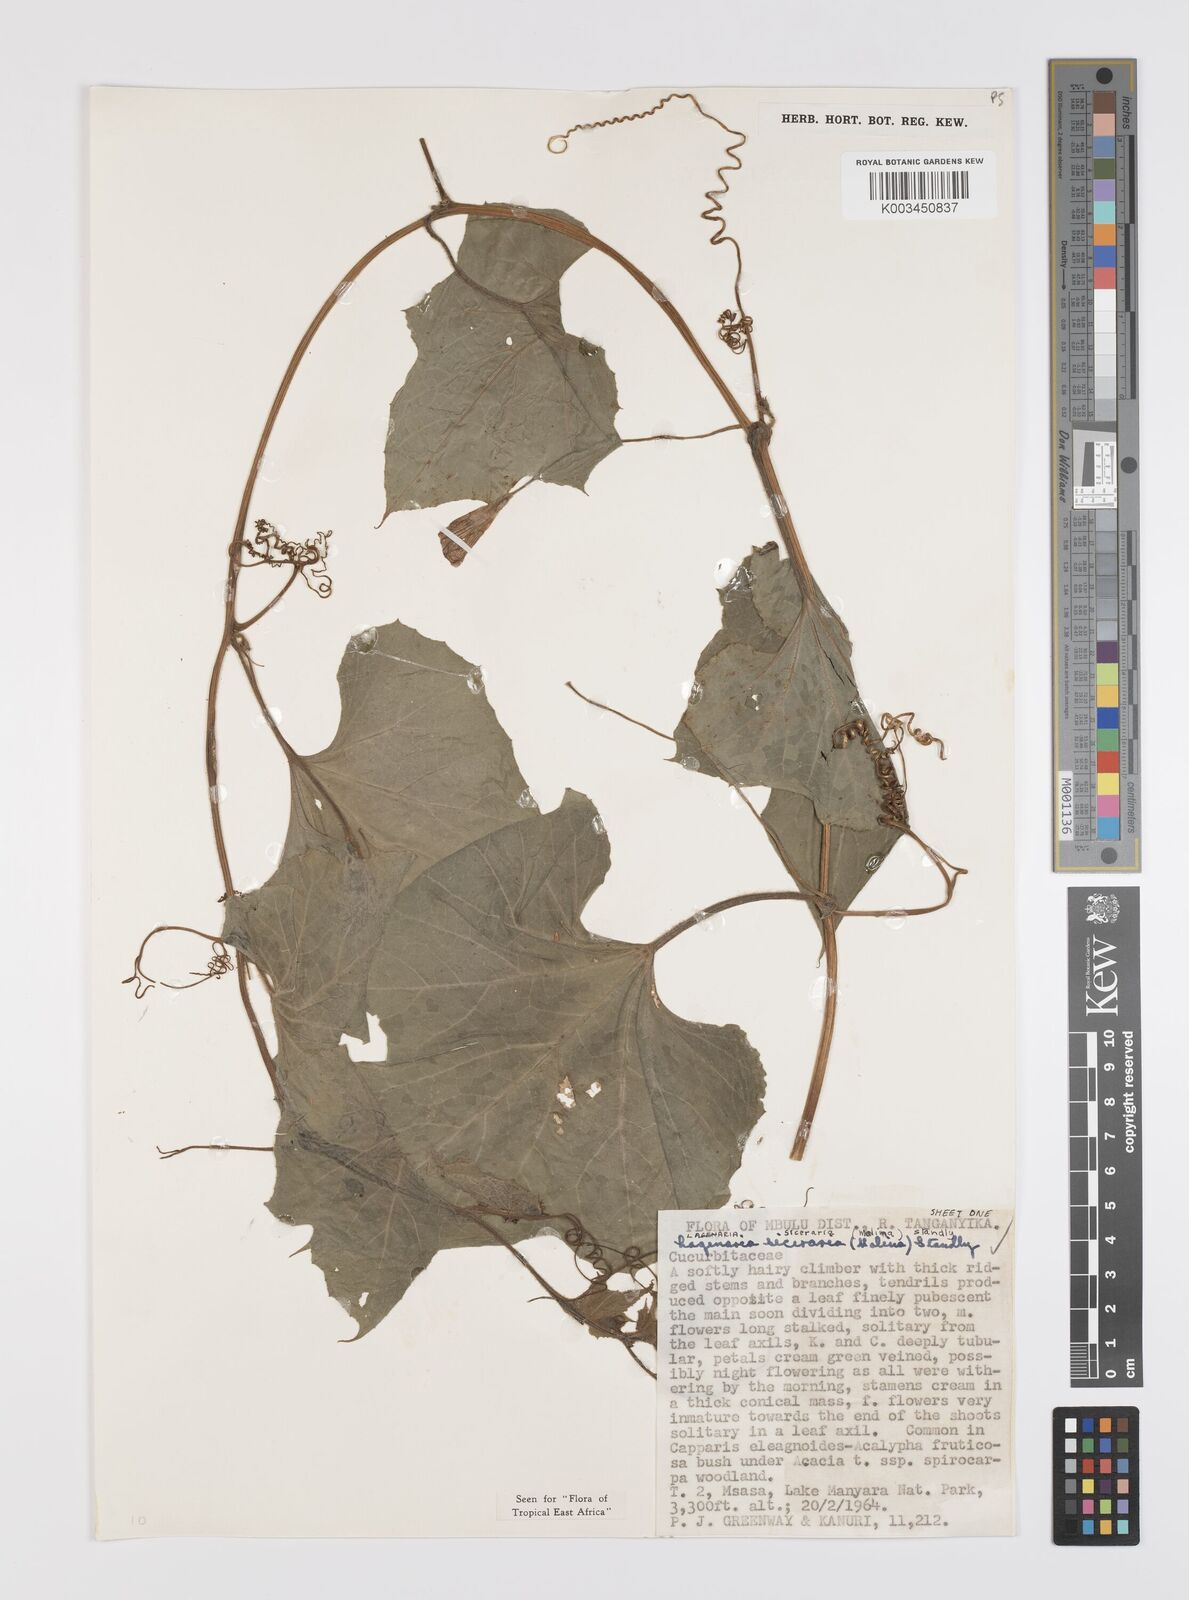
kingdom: Plantae
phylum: Tracheophyta
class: Magnoliopsida
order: Cucurbitales
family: Cucurbitaceae
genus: Lagenaria
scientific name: Lagenaria siceraria
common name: Bottle gourd
